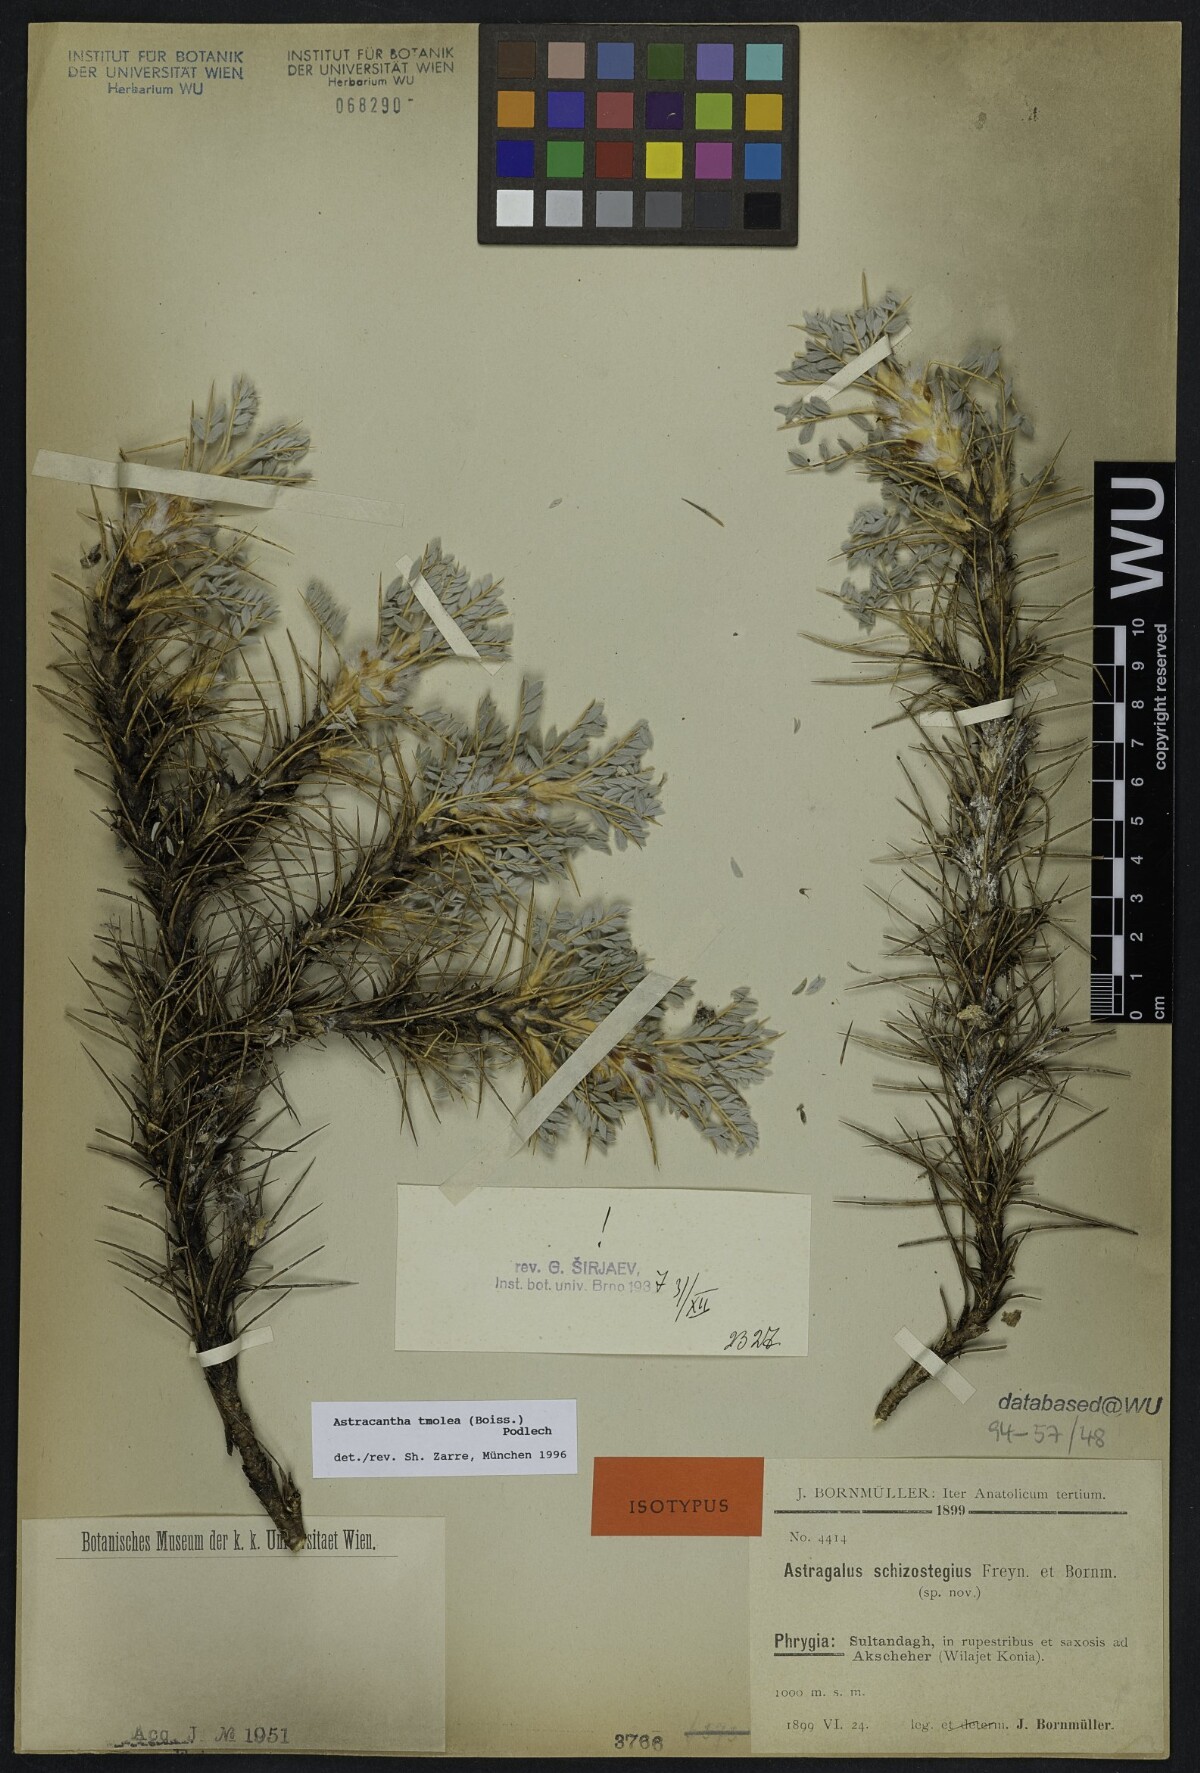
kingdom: Plantae
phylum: Tracheophyta
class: Magnoliopsida
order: Fabales
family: Fabaceae
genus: Astragalus
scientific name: Astragalus tmoleus
